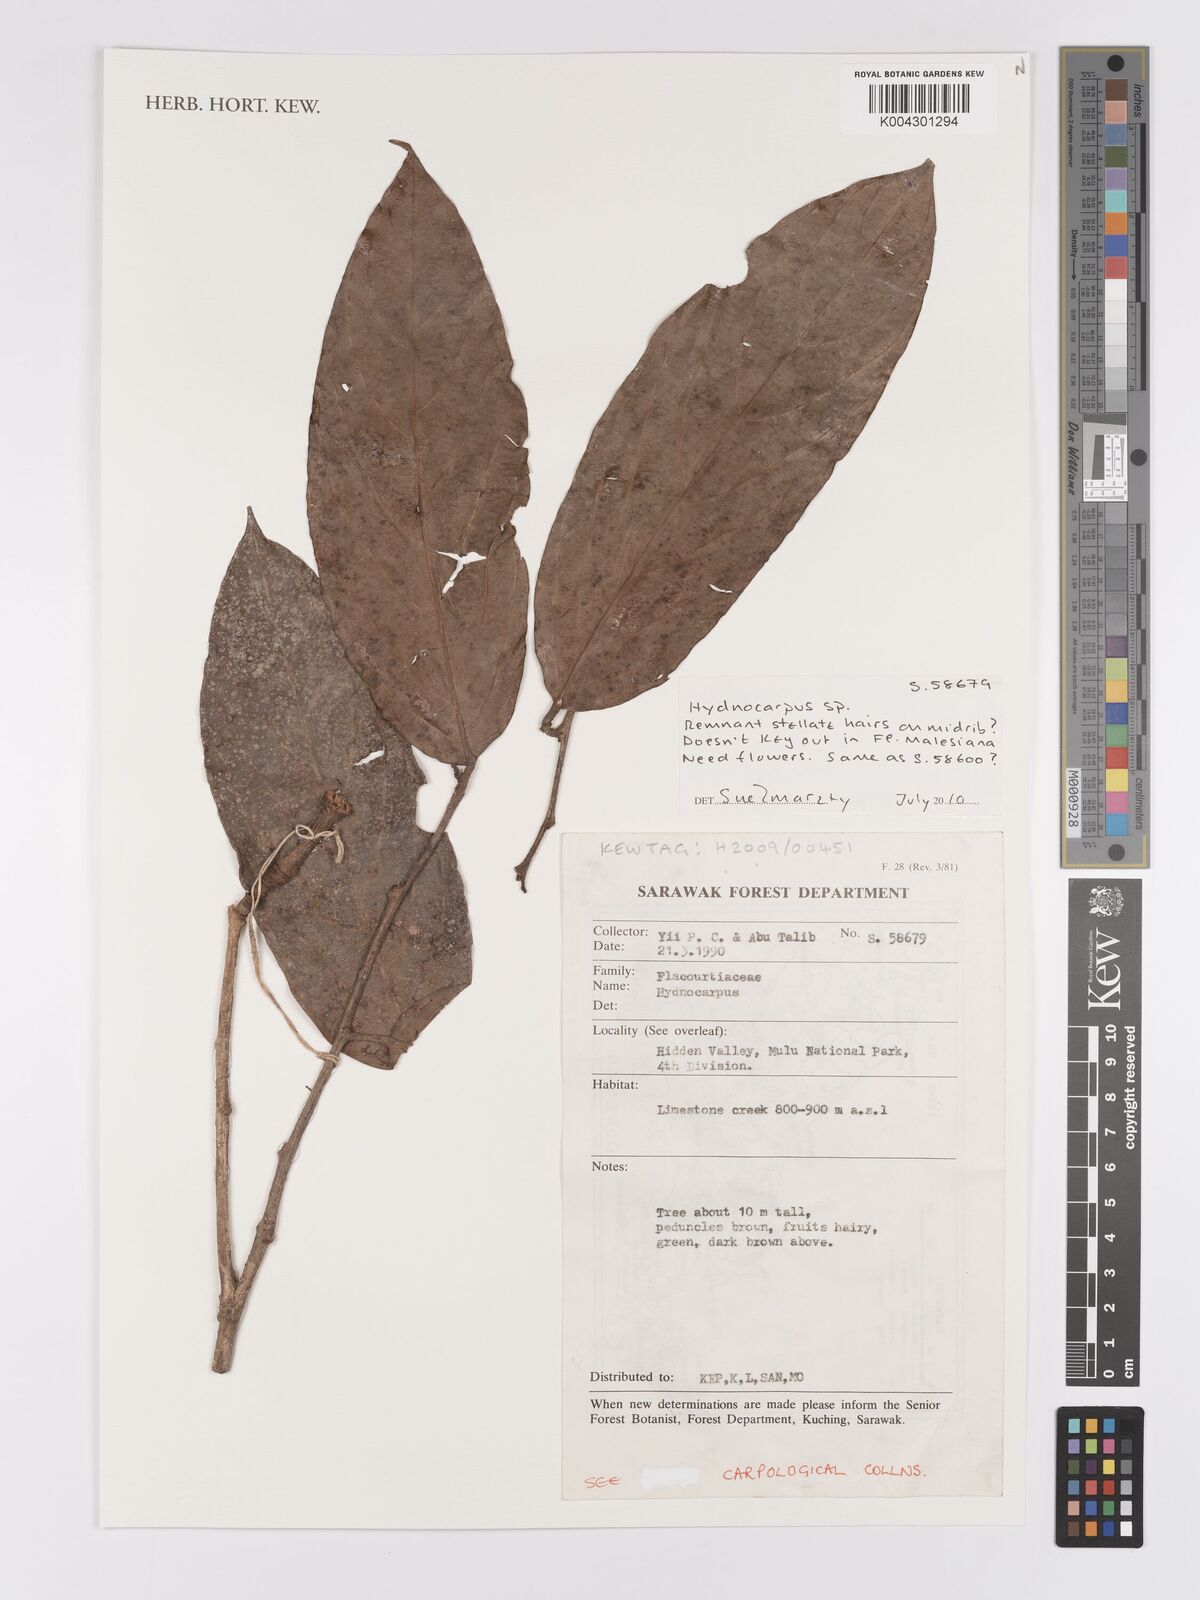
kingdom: Plantae
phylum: Tracheophyta
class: Magnoliopsida
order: Malpighiales
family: Achariaceae
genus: Hydnocarpus
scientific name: Hydnocarpus
